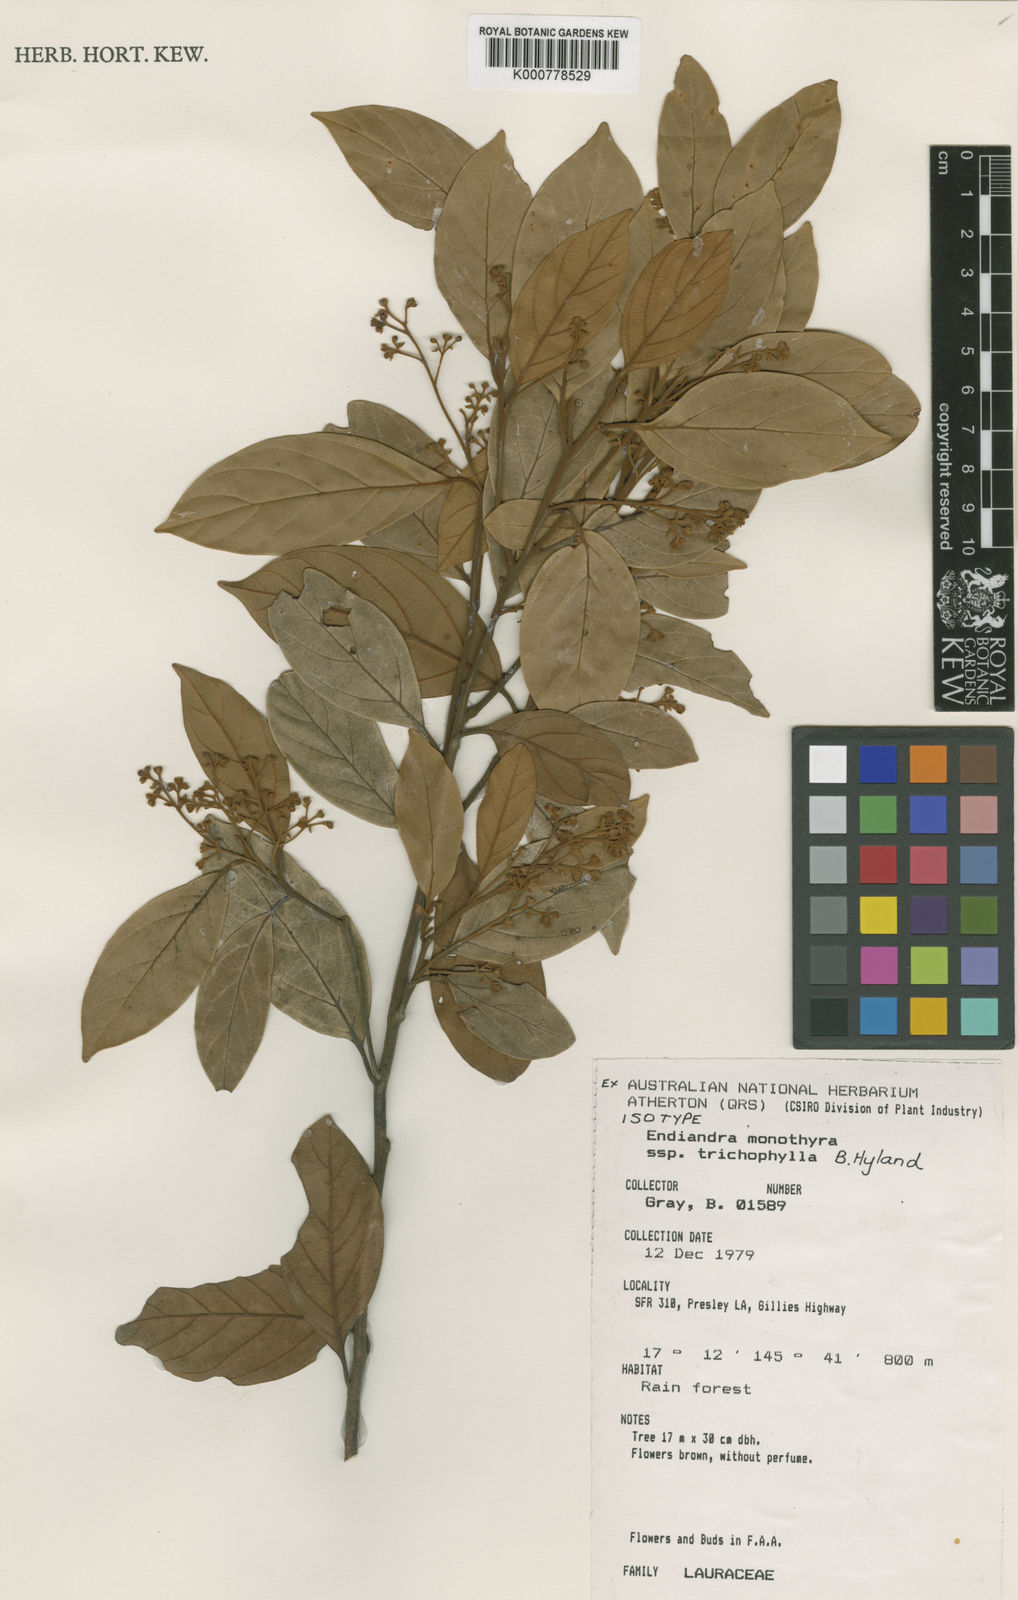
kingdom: Plantae
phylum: Tracheophyta
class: Magnoliopsida
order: Laurales
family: Lauraceae
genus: Endiandra
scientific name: Endiandra monothyra
